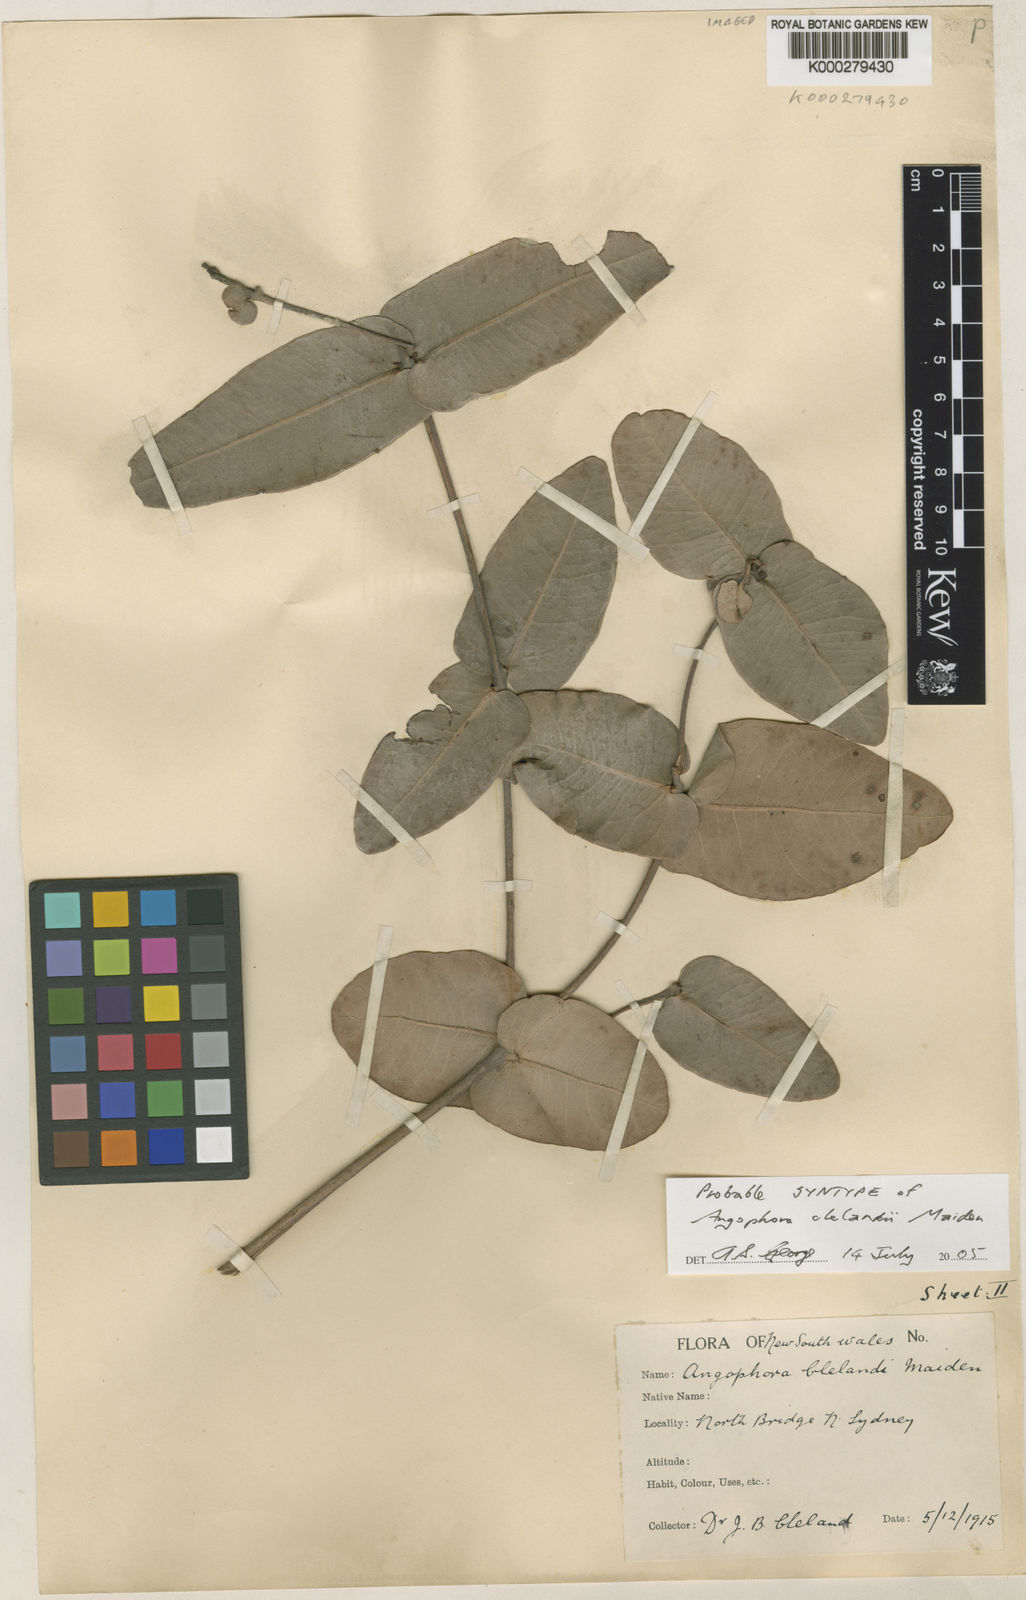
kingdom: Plantae
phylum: Tracheophyta
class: Magnoliopsida
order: Myrtales
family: Myrtaceae
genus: Angophora
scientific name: Angophora clelandii
